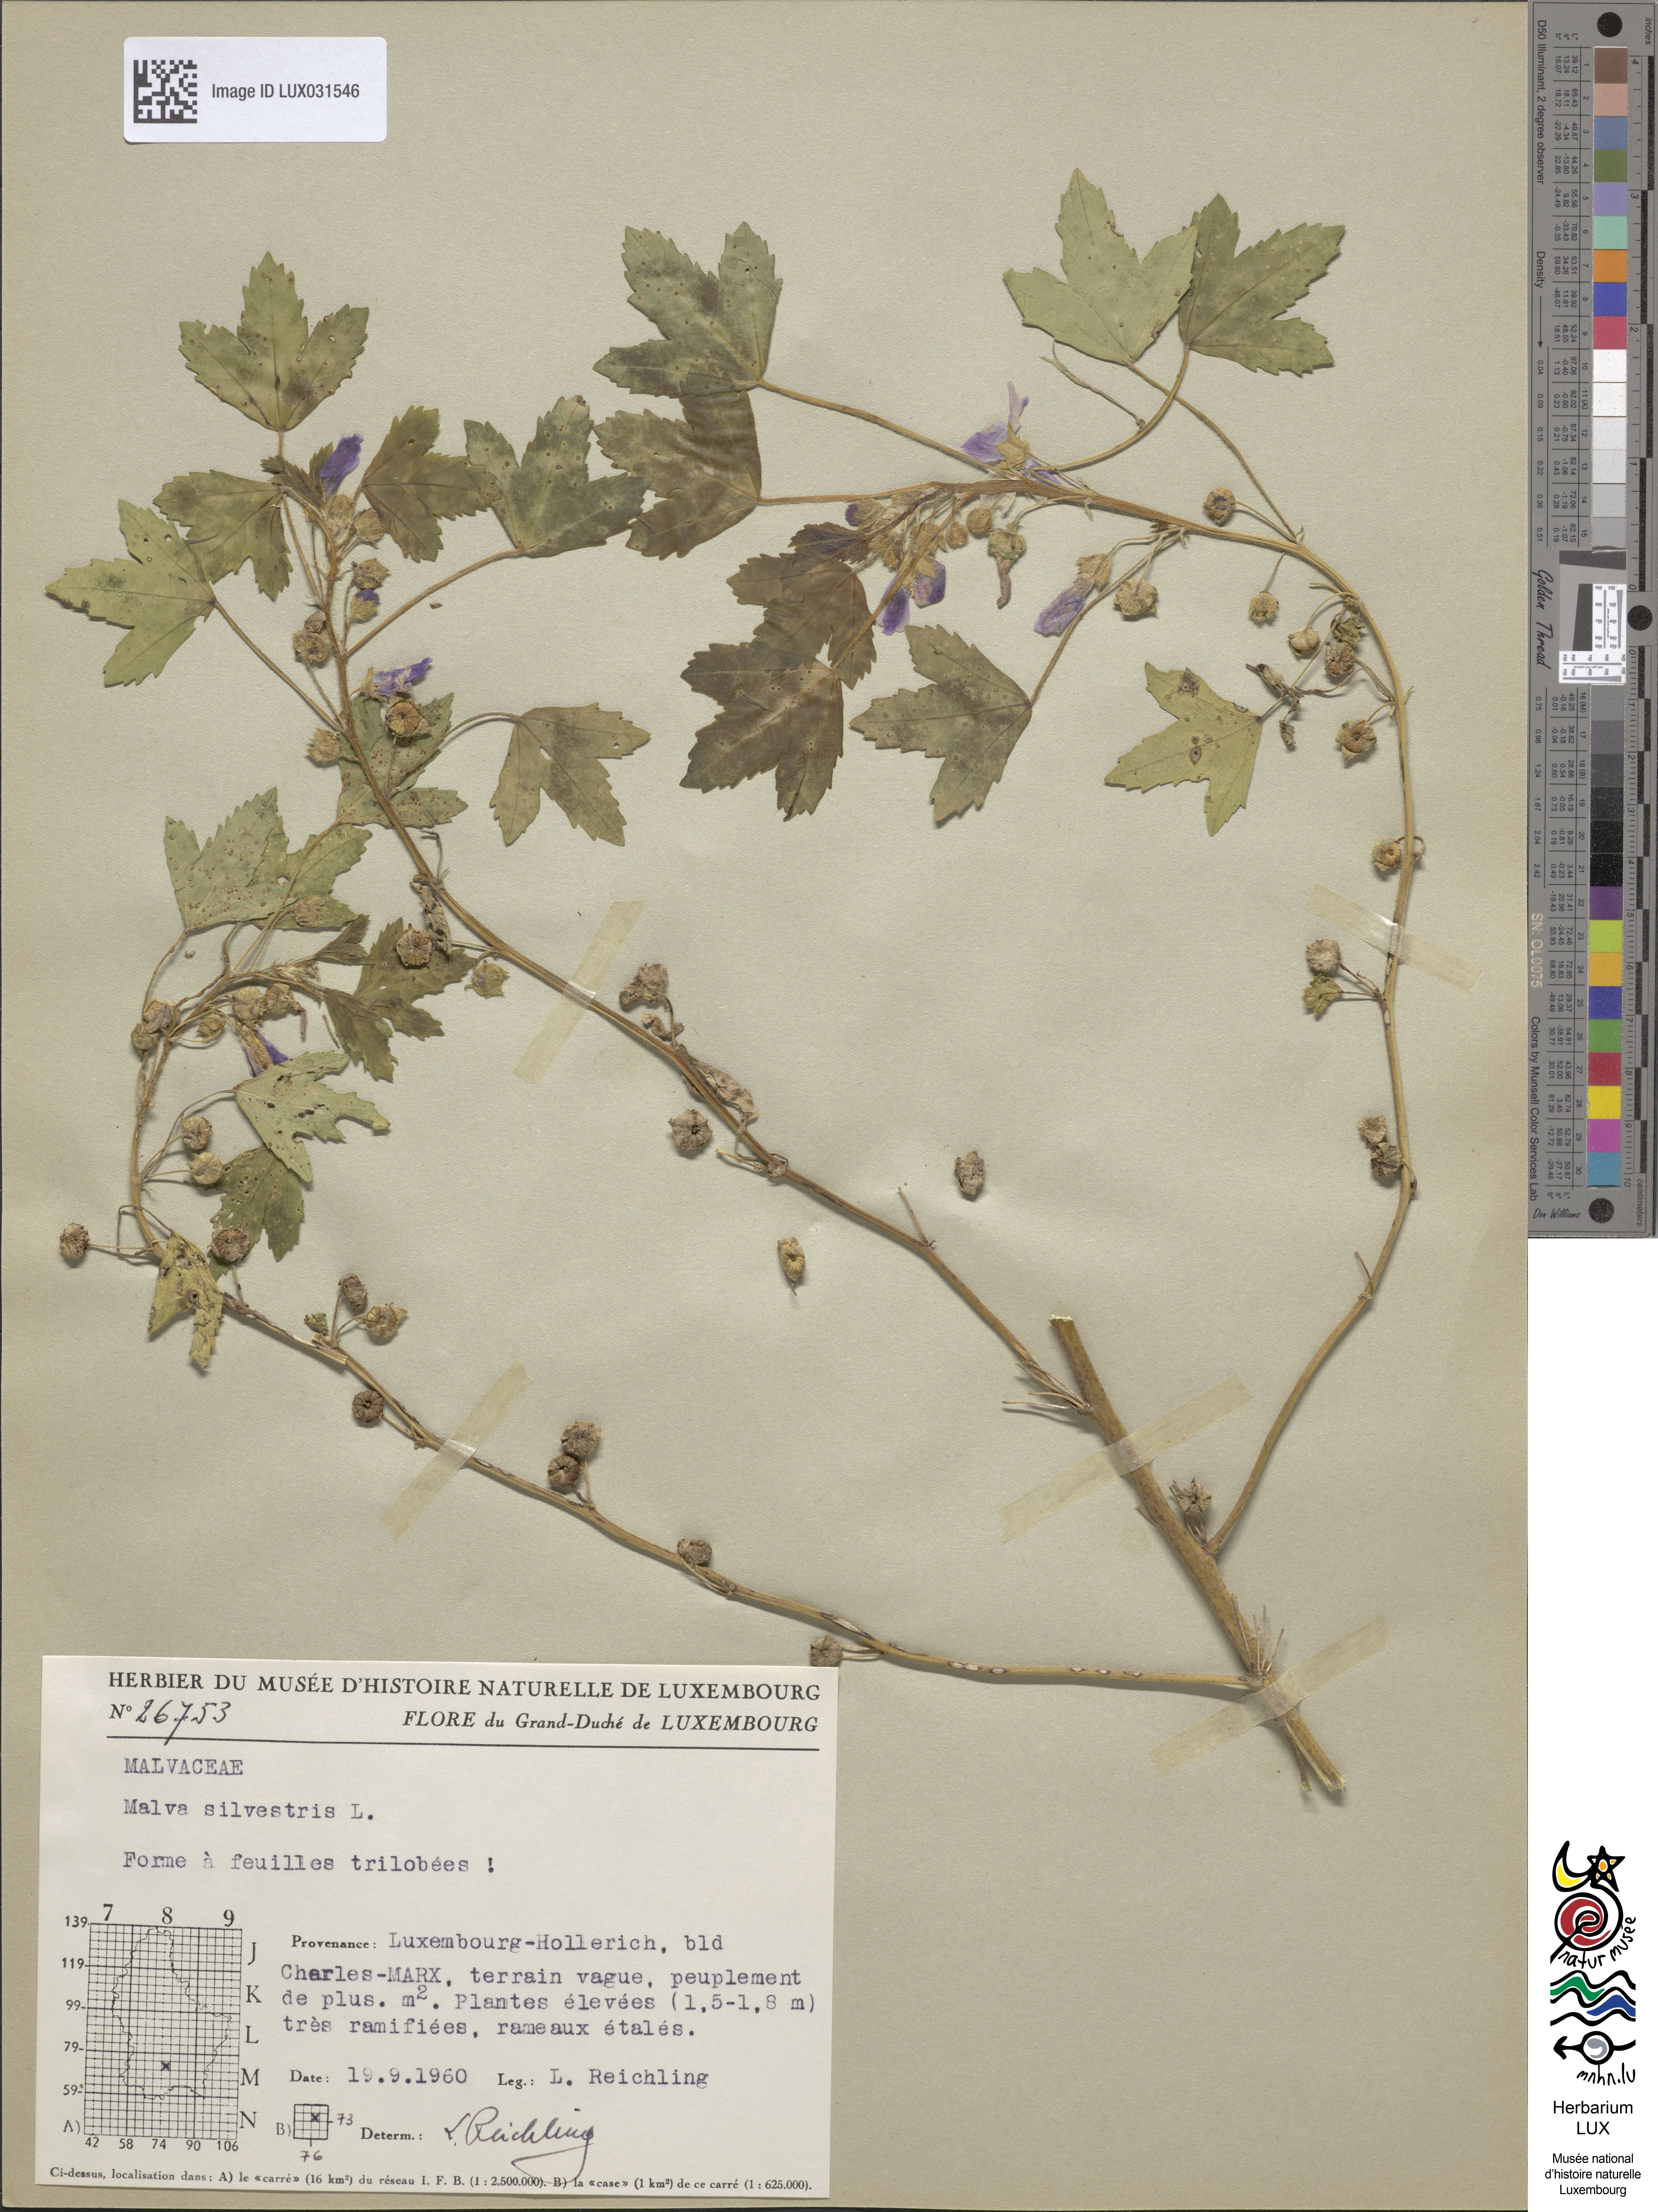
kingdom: Plantae
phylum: Tracheophyta
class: Magnoliopsida
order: Malvales
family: Malvaceae
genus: Malva
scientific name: Malva sylvestris
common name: Common mallow
